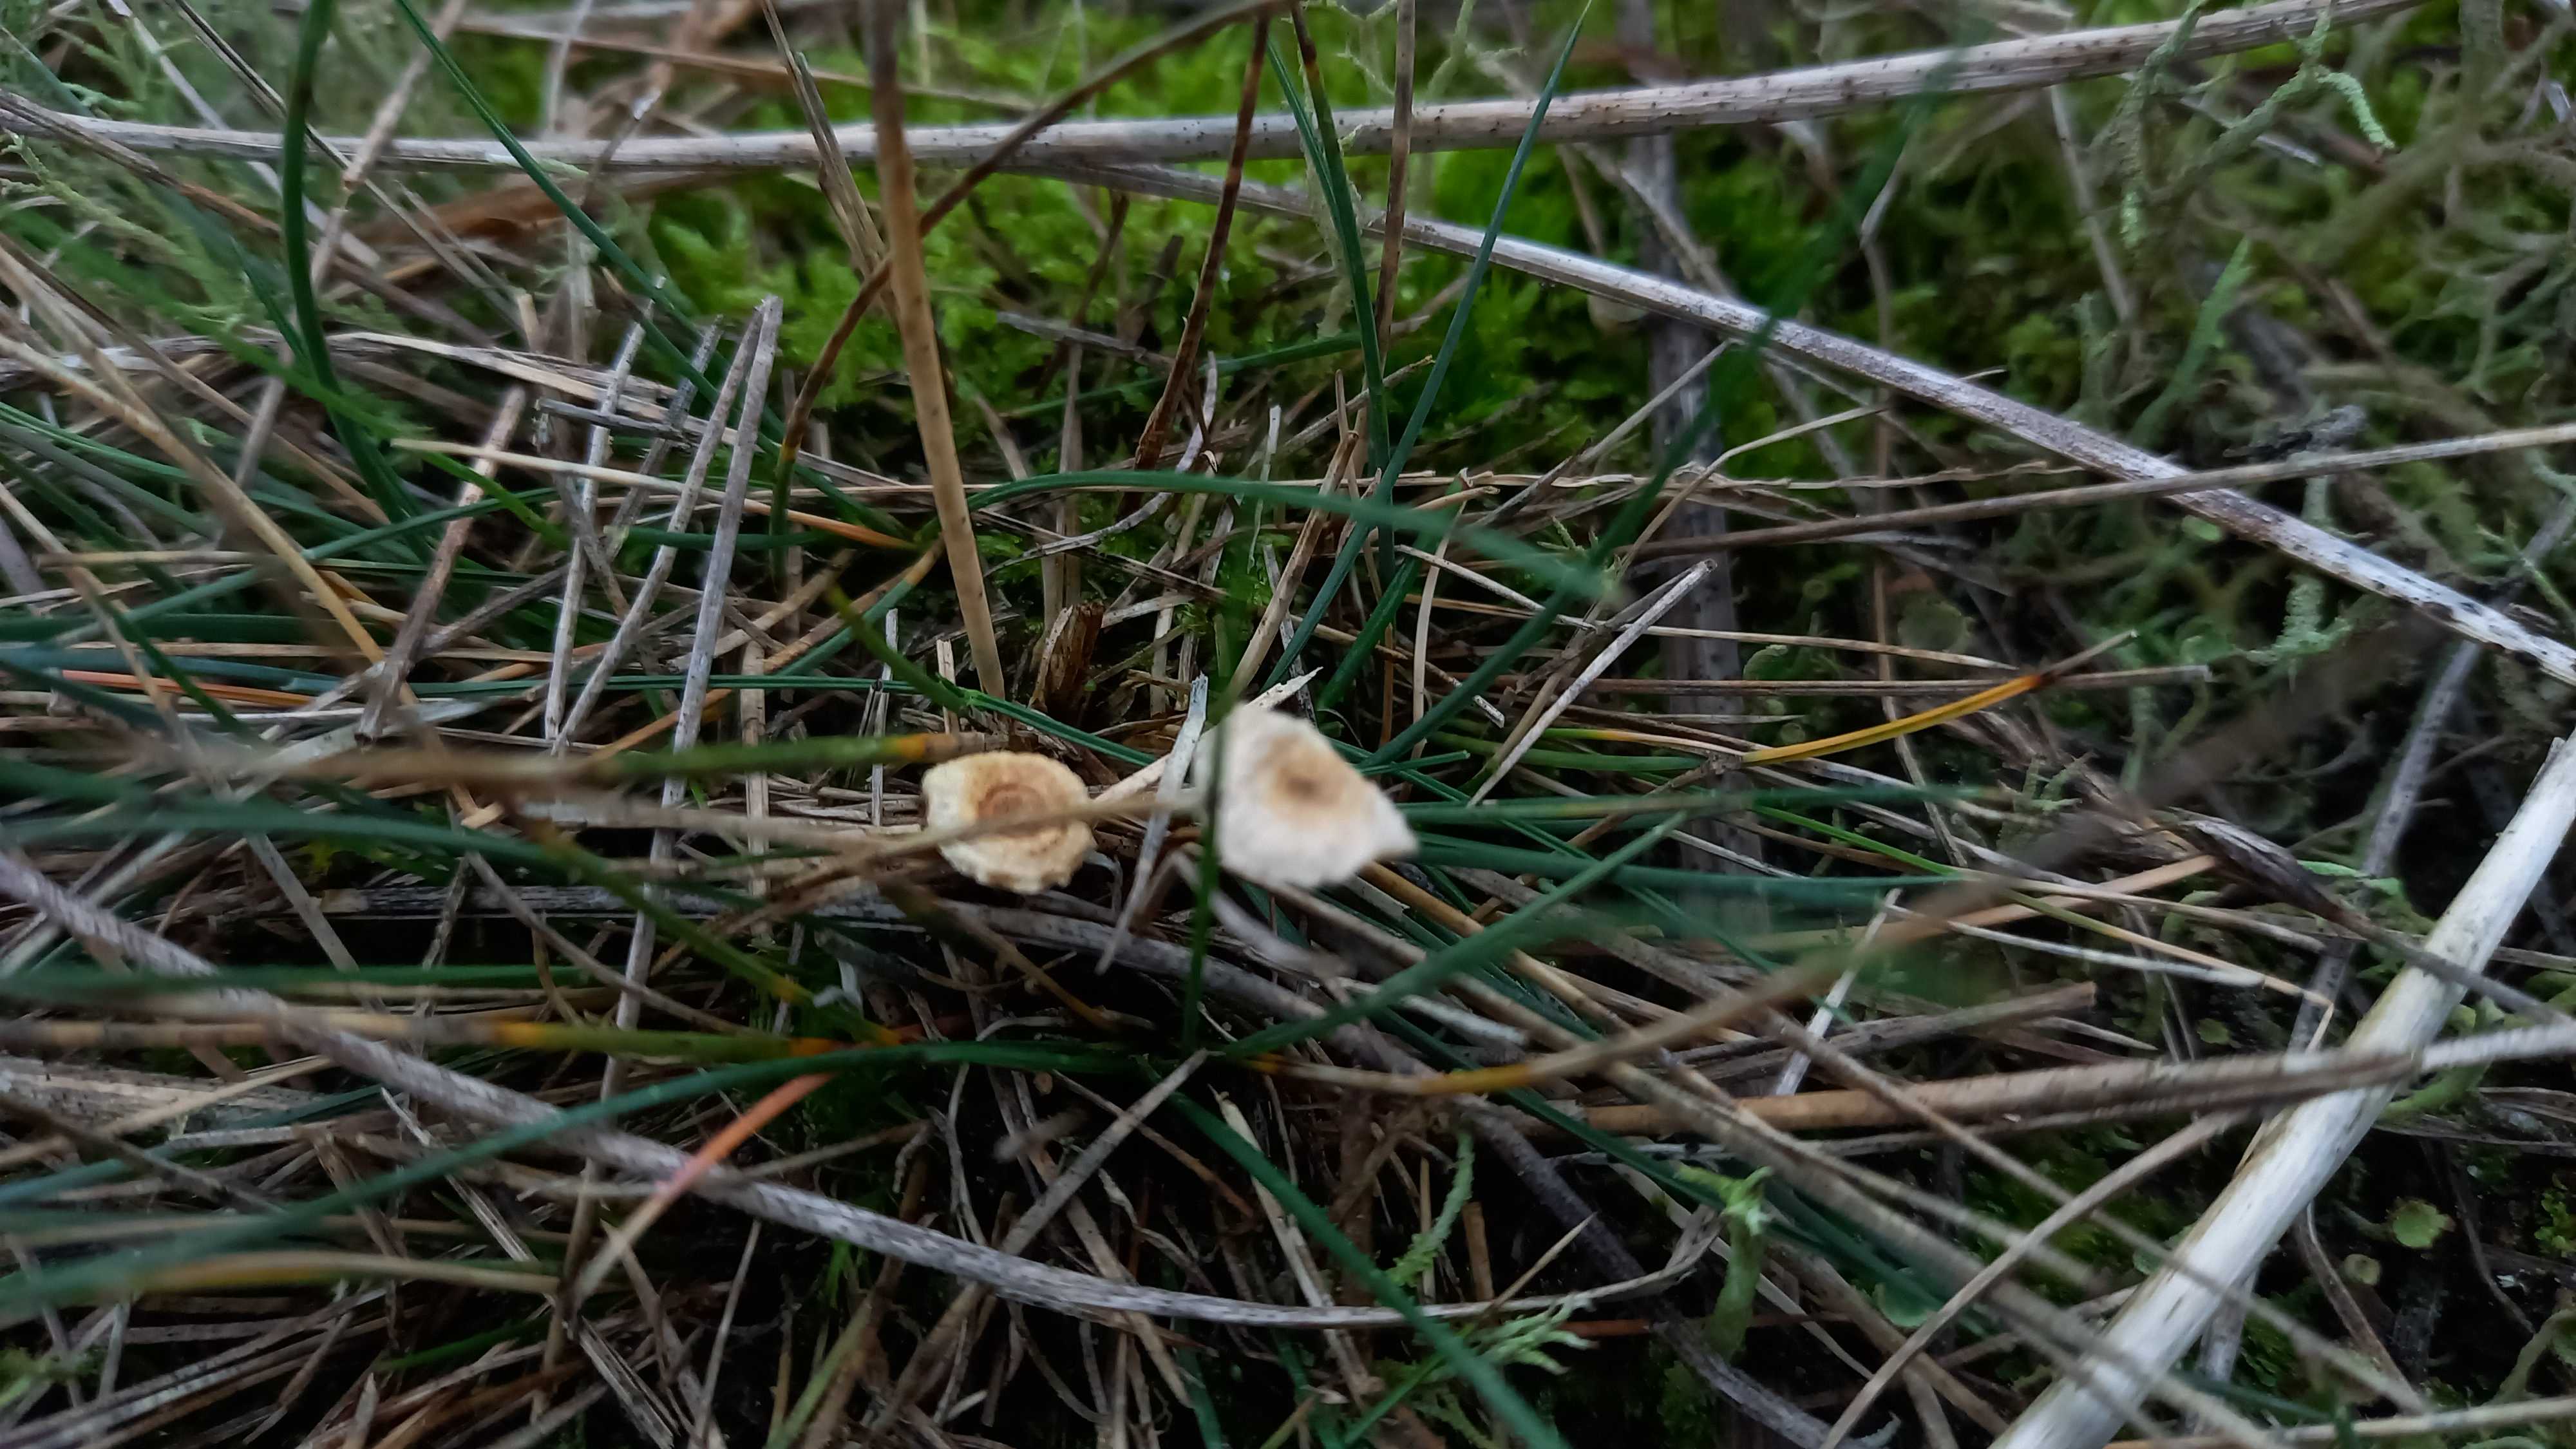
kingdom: Fungi
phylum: Basidiomycota
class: Agaricomycetes
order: Agaricales
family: Marasmiaceae
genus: Crinipellis
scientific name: Crinipellis scabella
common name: børstefod
